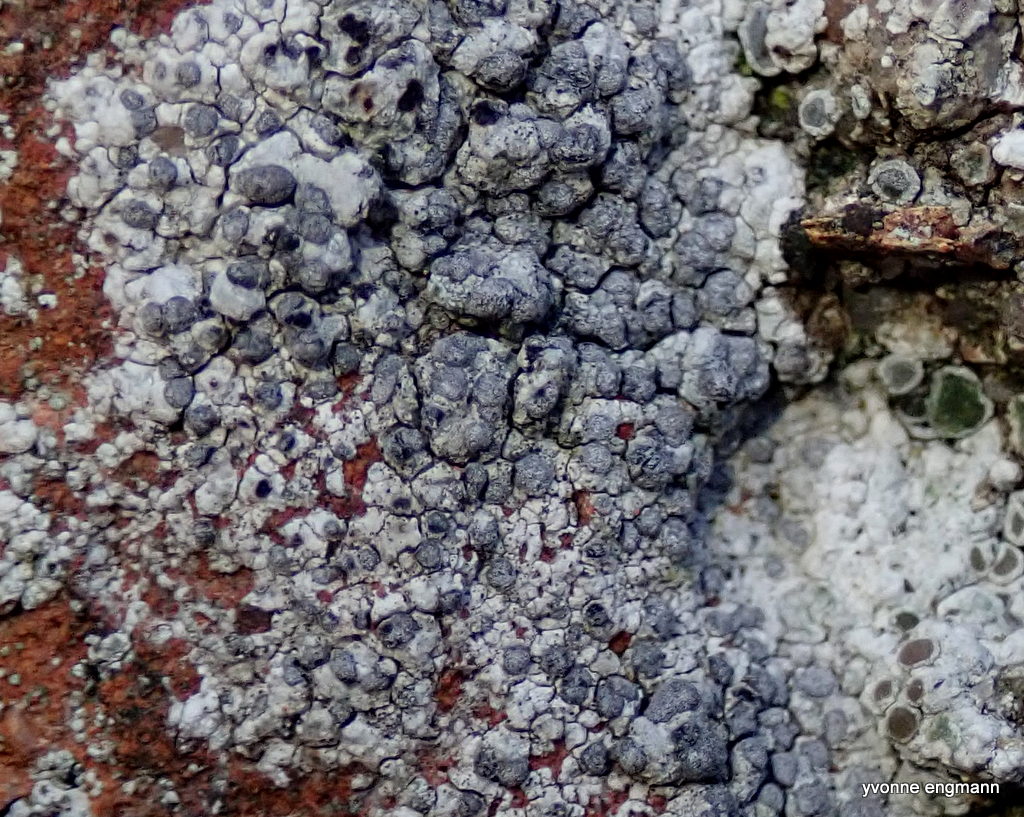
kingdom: Fungi
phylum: Ascomycota
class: Lecanoromycetes
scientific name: Lecanoromycetes
